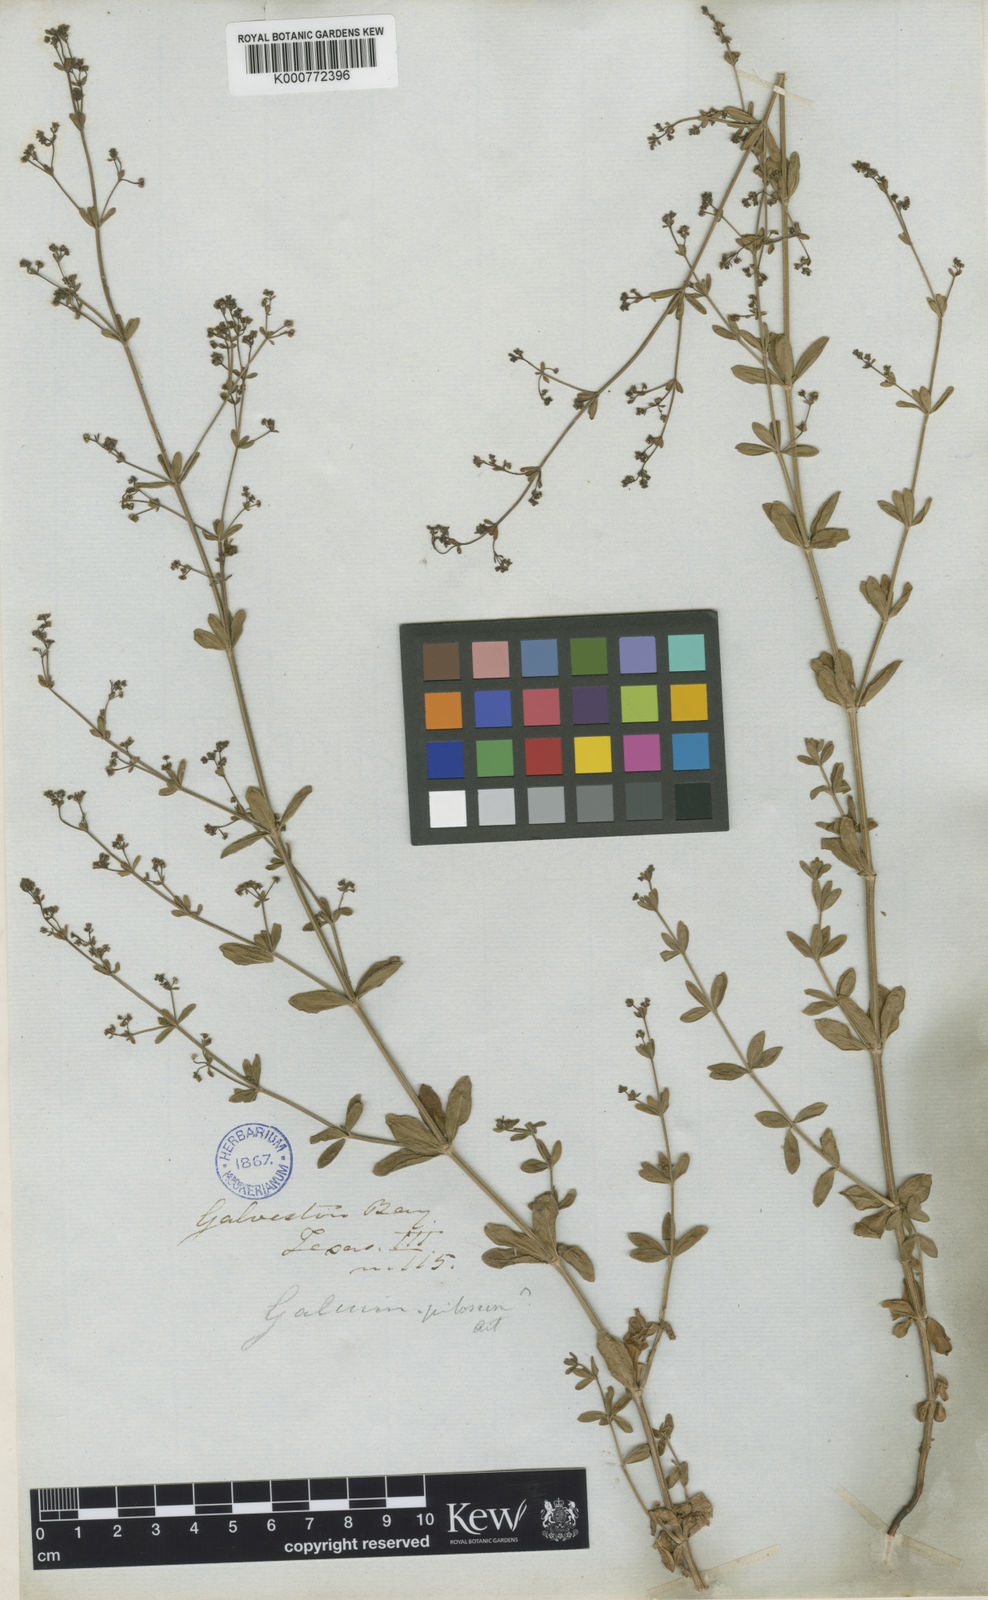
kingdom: Plantae
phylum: Tracheophyta
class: Magnoliopsida
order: Gentianales
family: Rubiaceae
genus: Galium
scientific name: Galium pilosum
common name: Hairy bedstraw
